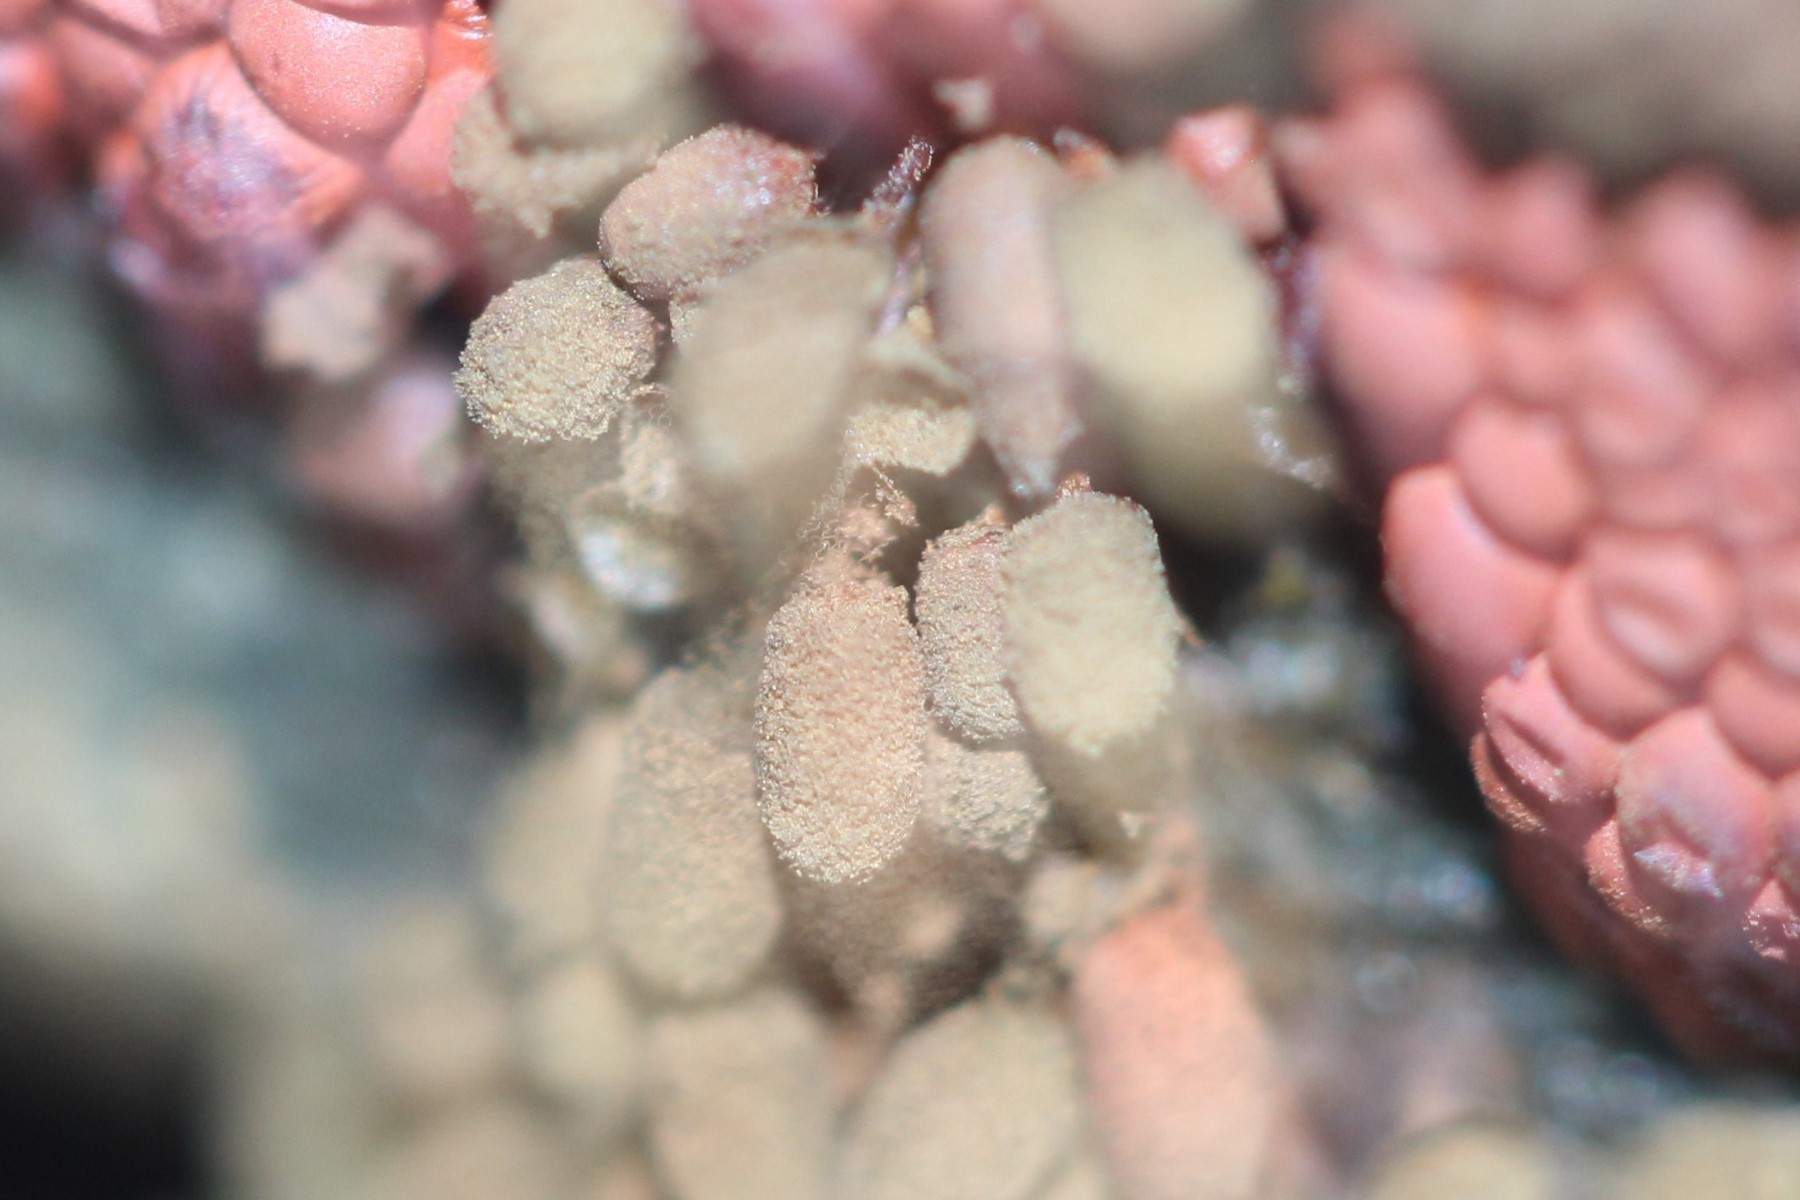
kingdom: Protozoa
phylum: Mycetozoa
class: Myxomycetes
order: Trichiales
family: Arcyriaceae
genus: Arcyria
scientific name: Arcyria ferruginea
